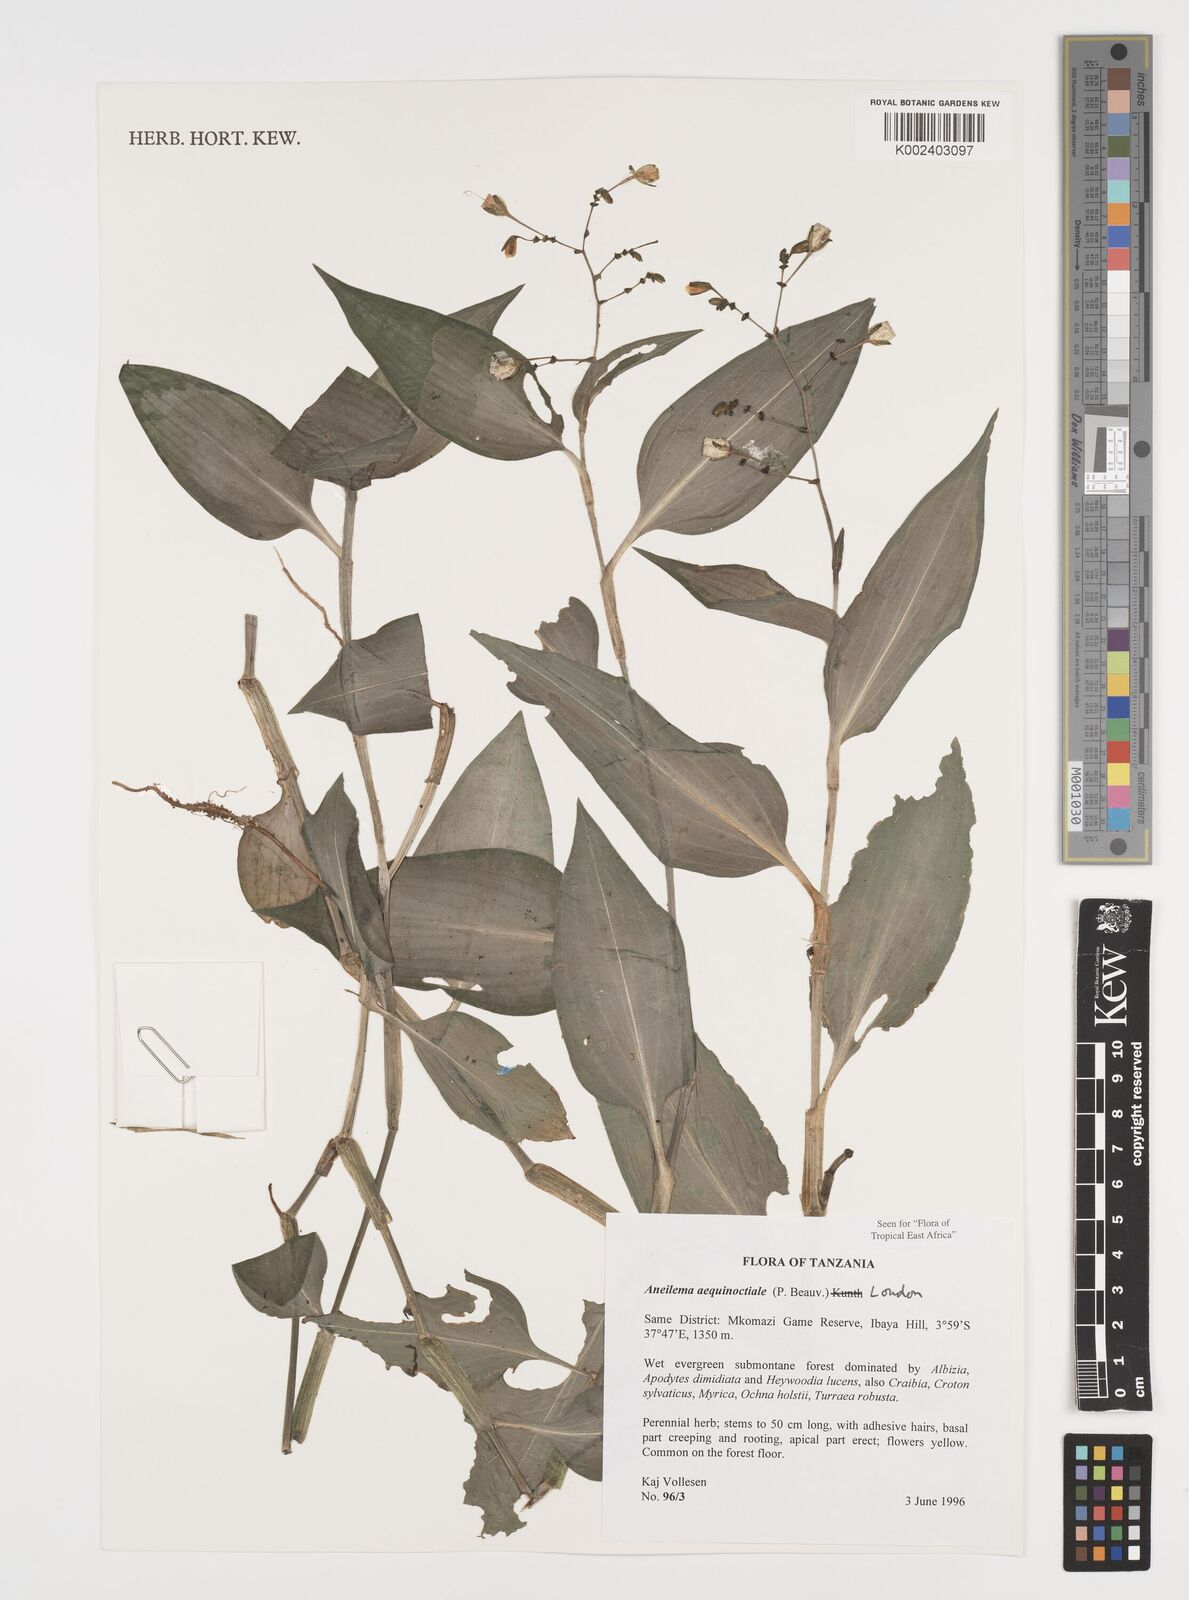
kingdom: Plantae
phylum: Tracheophyta
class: Liliopsida
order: Commelinales
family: Commelinaceae
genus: Aneilema
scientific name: Aneilema aequinoctiale
